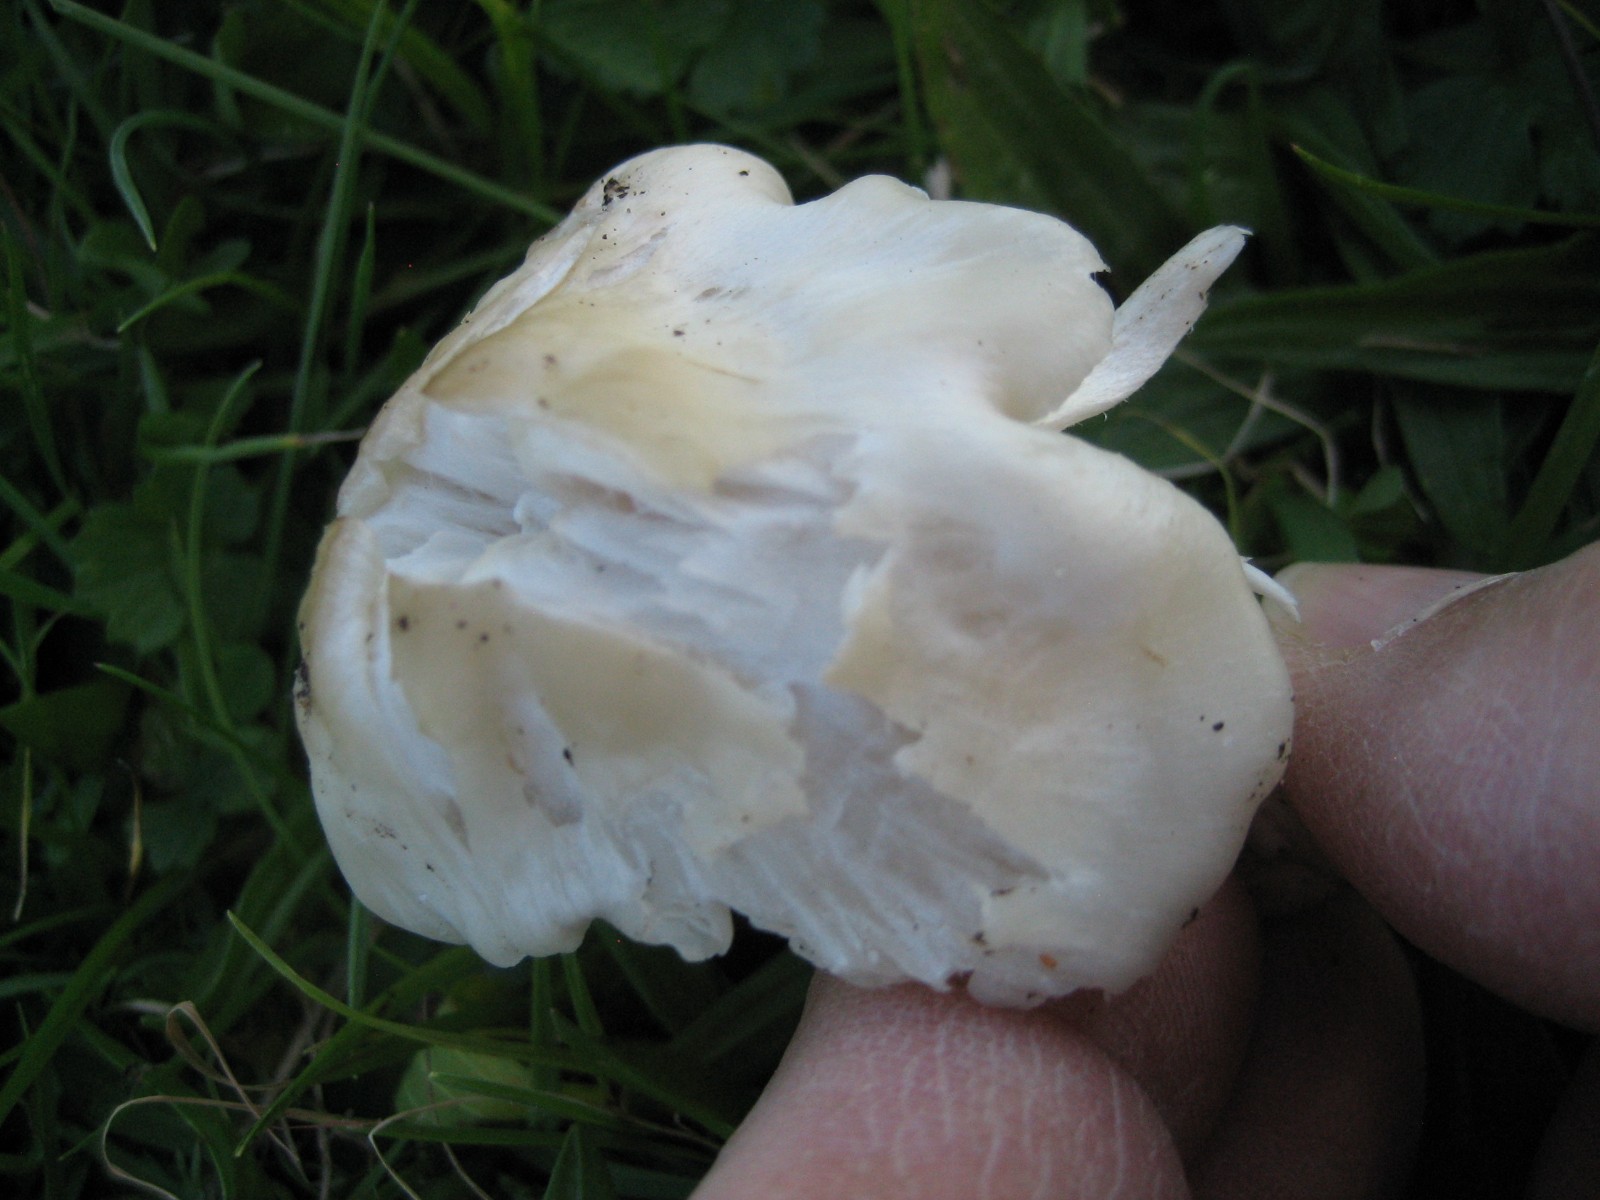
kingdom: Fungi
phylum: Basidiomycota
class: Agaricomycetes
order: Agaricales
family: Hygrophoraceae
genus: Cuphophyllus
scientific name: Cuphophyllus fornicatus
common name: gråbrun vokshat
